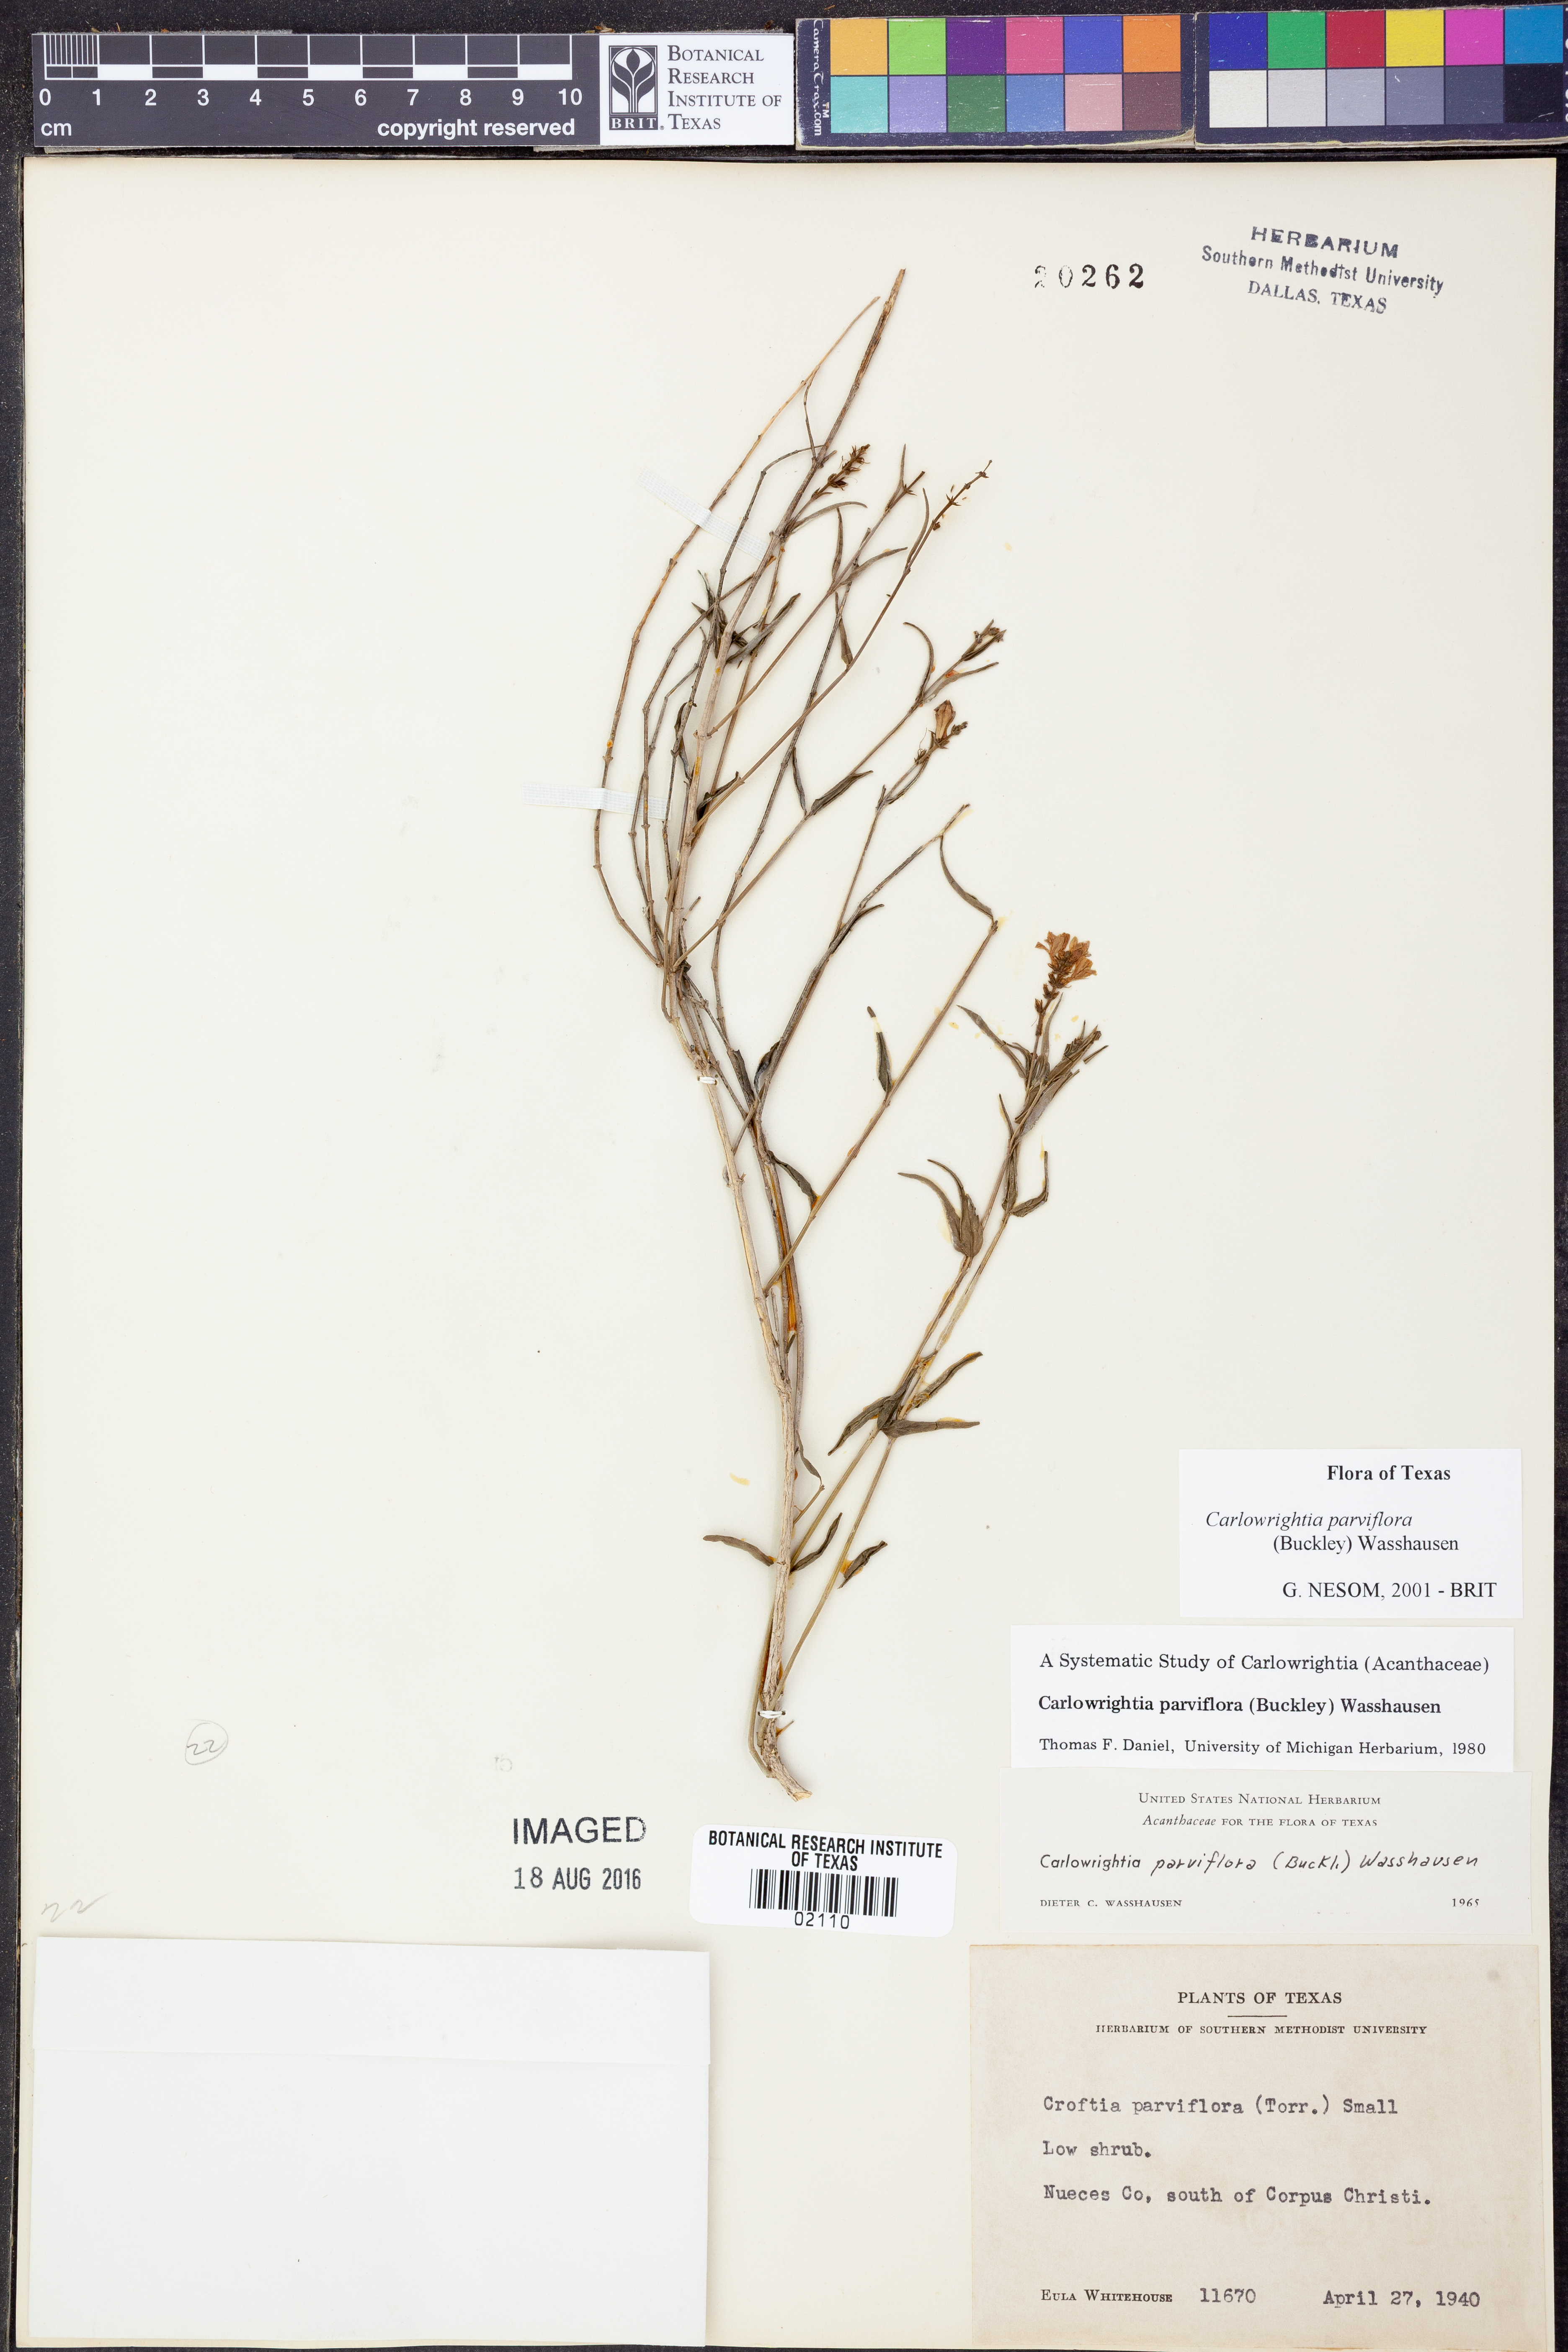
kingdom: Plantae
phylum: Tracheophyta
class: Magnoliopsida
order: Lamiales
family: Acanthaceae
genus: Carlowrightia
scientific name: Carlowrightia parviflora
